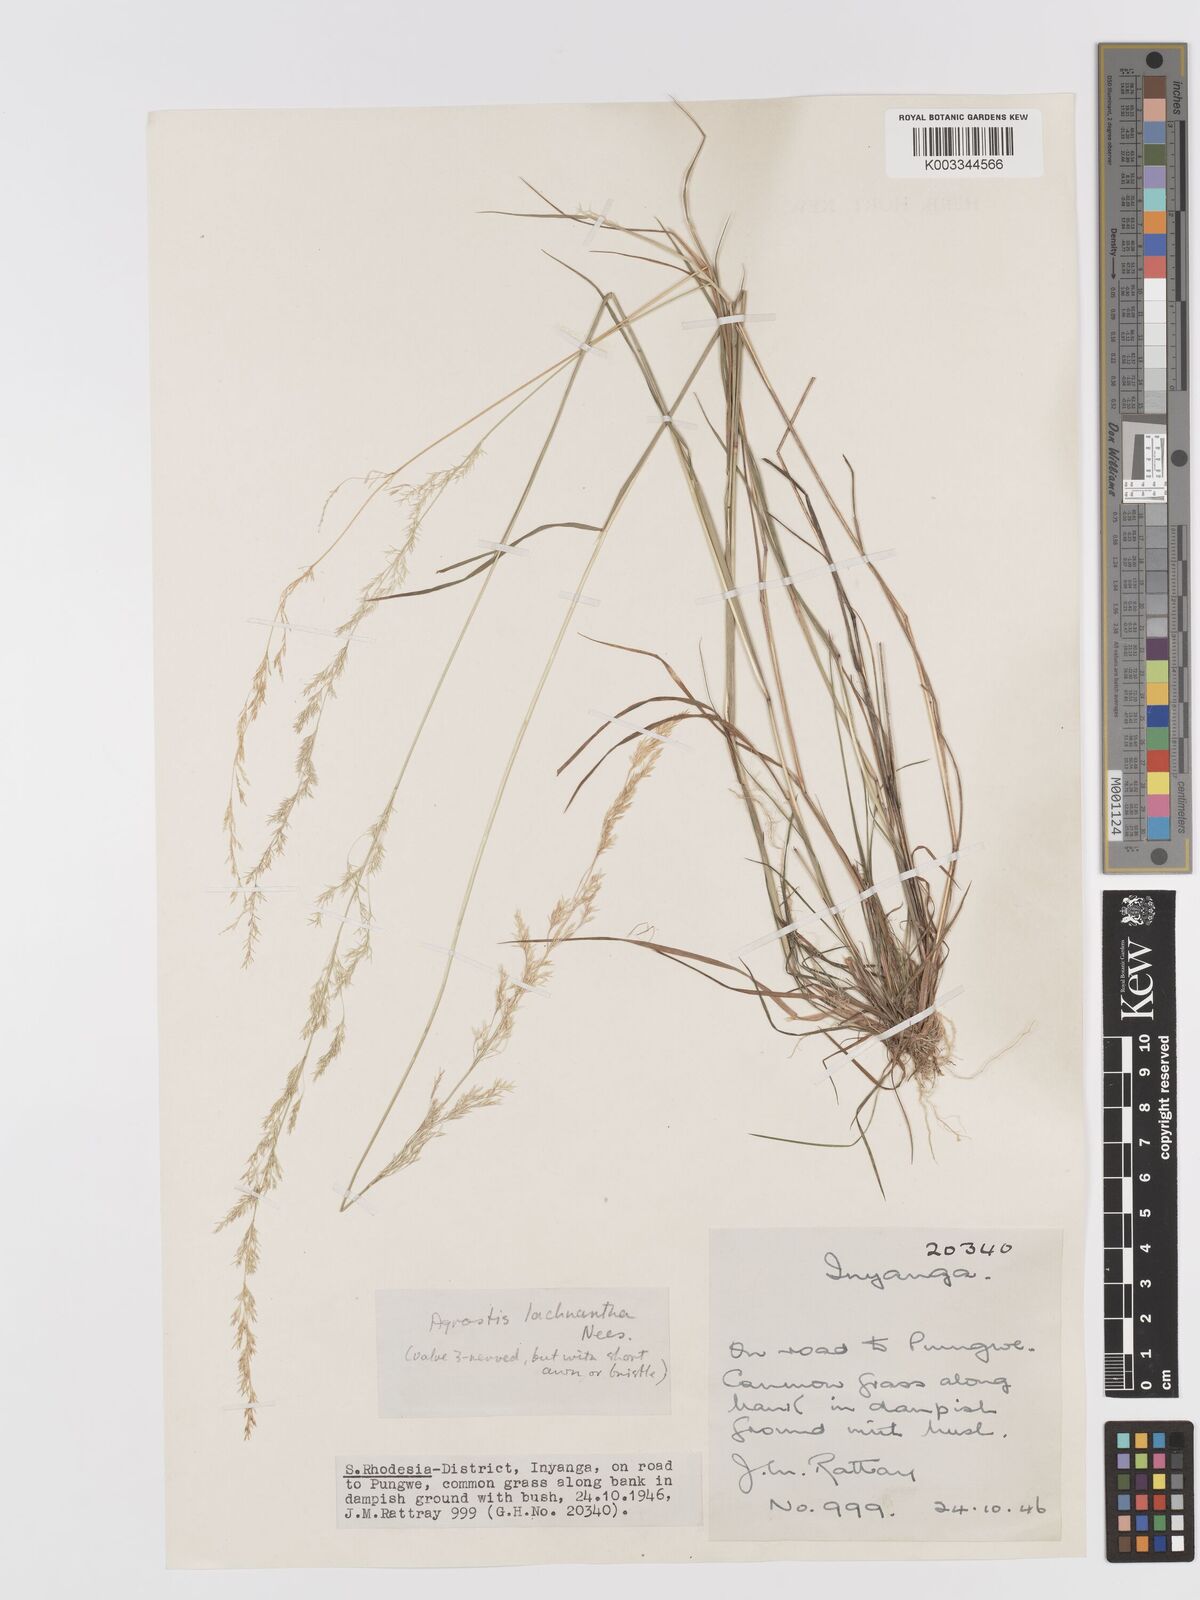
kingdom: Plantae
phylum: Tracheophyta
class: Liliopsida
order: Poales
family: Poaceae
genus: Lachnagrostis
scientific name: Lachnagrostis lachnantha
